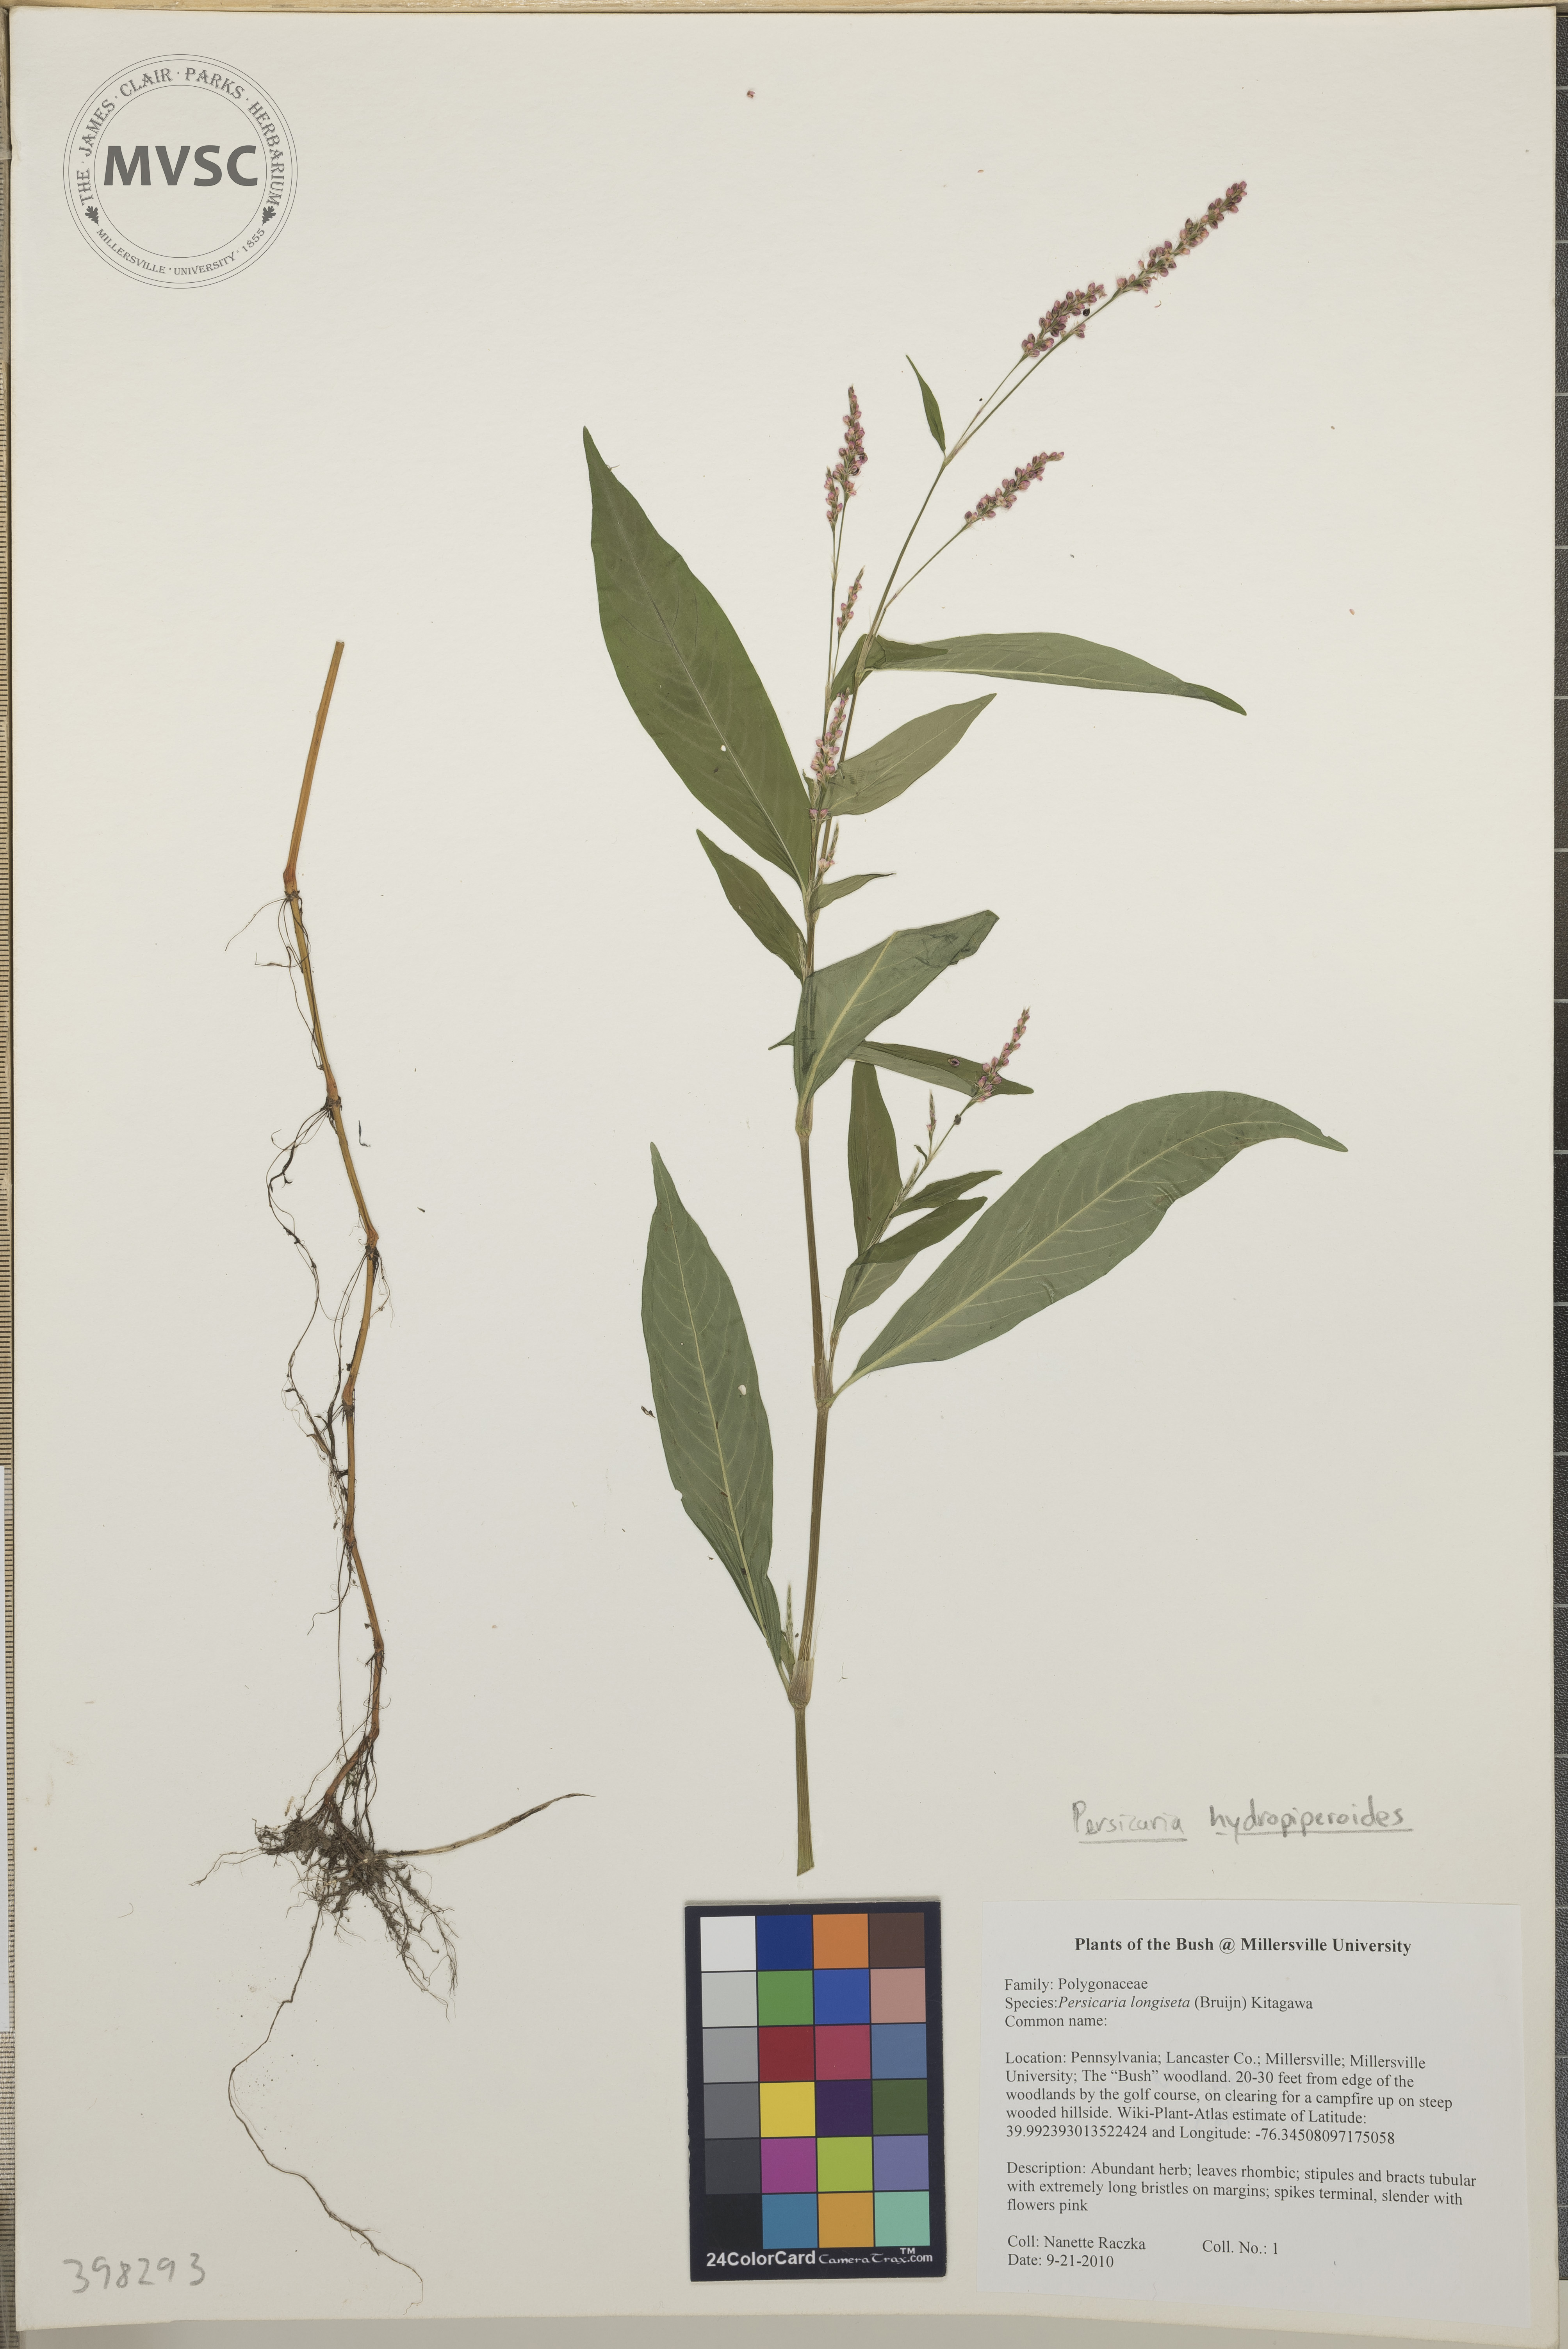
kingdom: Plantae
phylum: Tracheophyta
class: Magnoliopsida
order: Caryophyllales
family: Polygonaceae
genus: Persicaria
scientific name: Persicaria hydropiperoides
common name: Mild water-pepper
